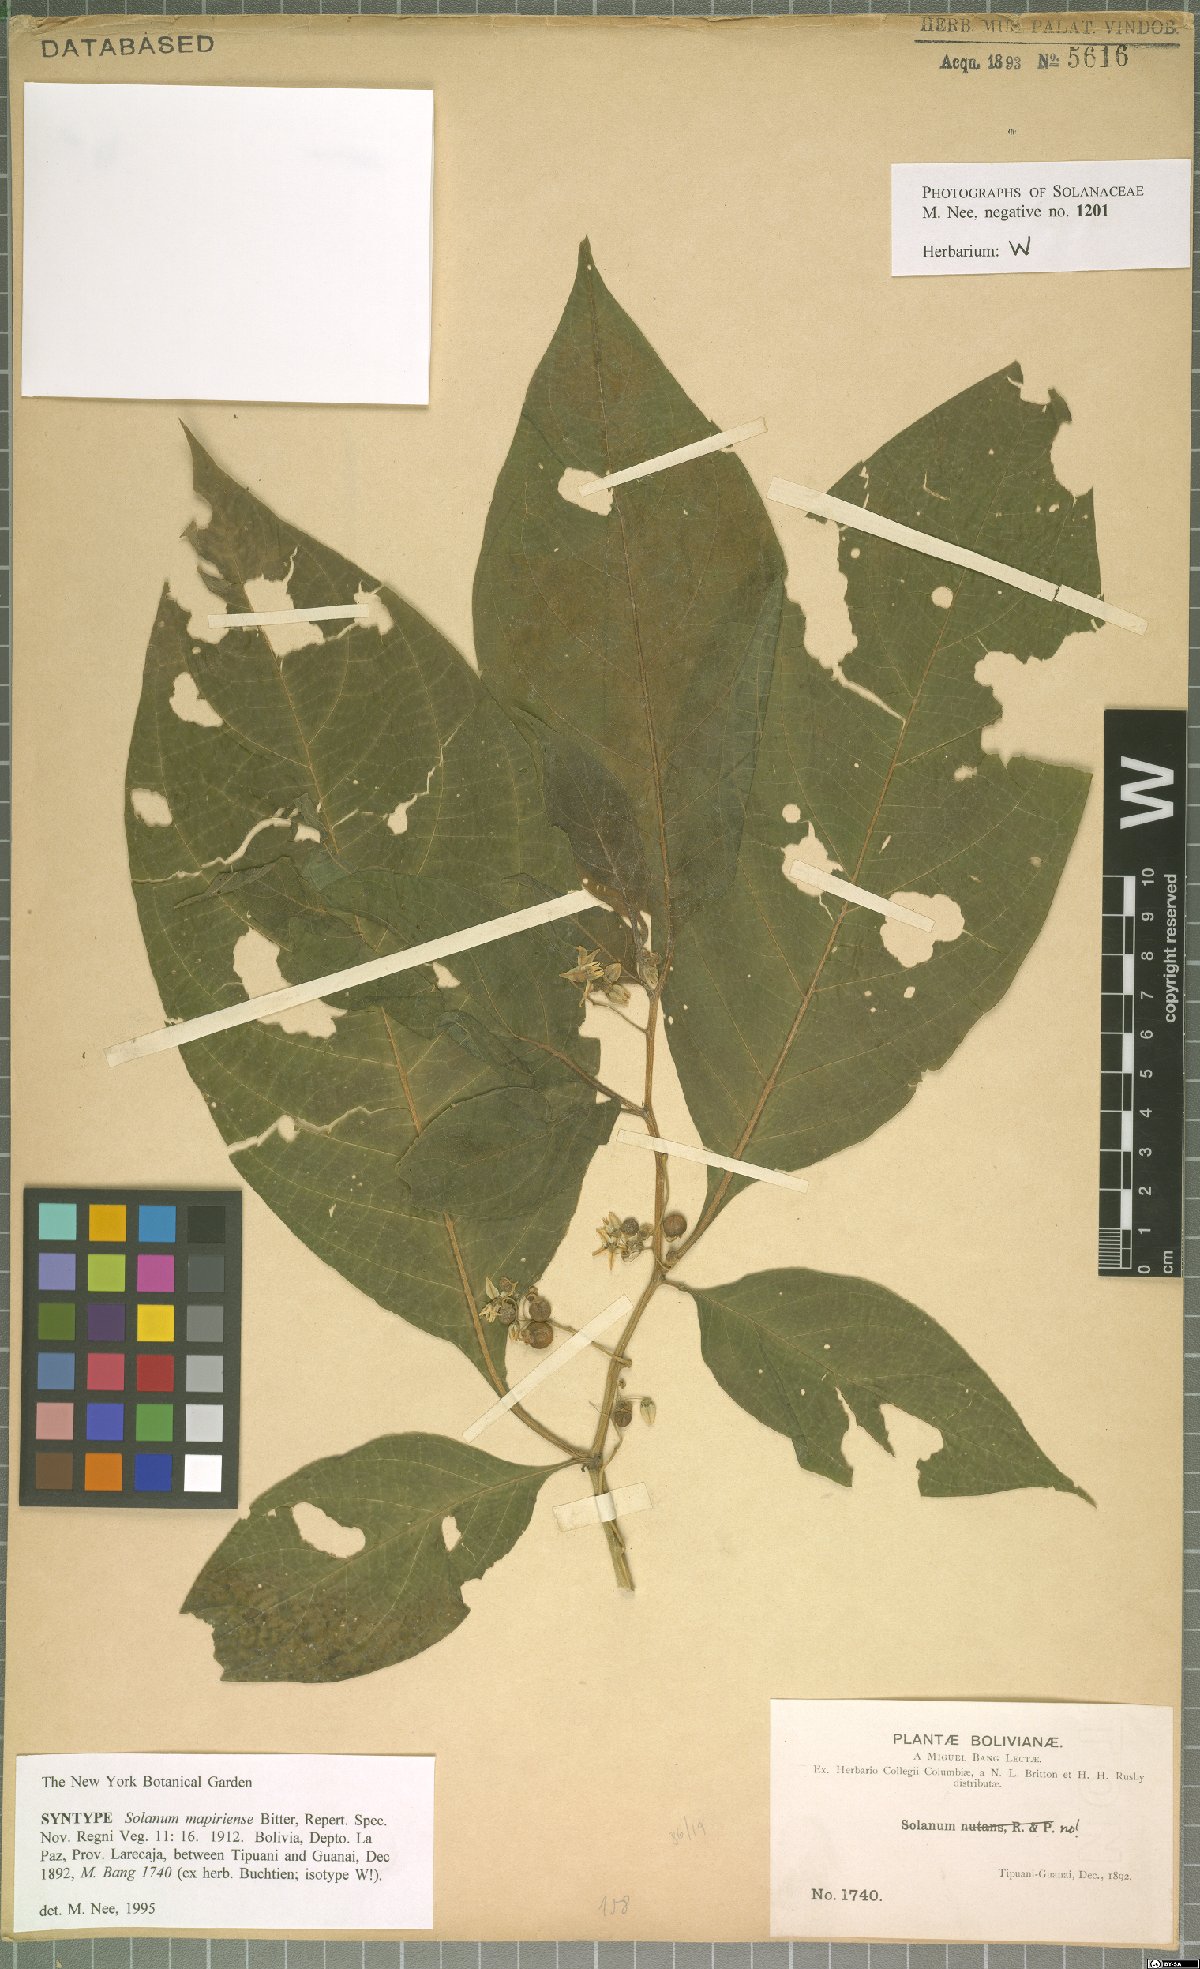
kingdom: Plantae
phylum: Tracheophyta
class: Magnoliopsida
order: Solanales
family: Solanaceae
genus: Solanum
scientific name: Solanum mapiriense
